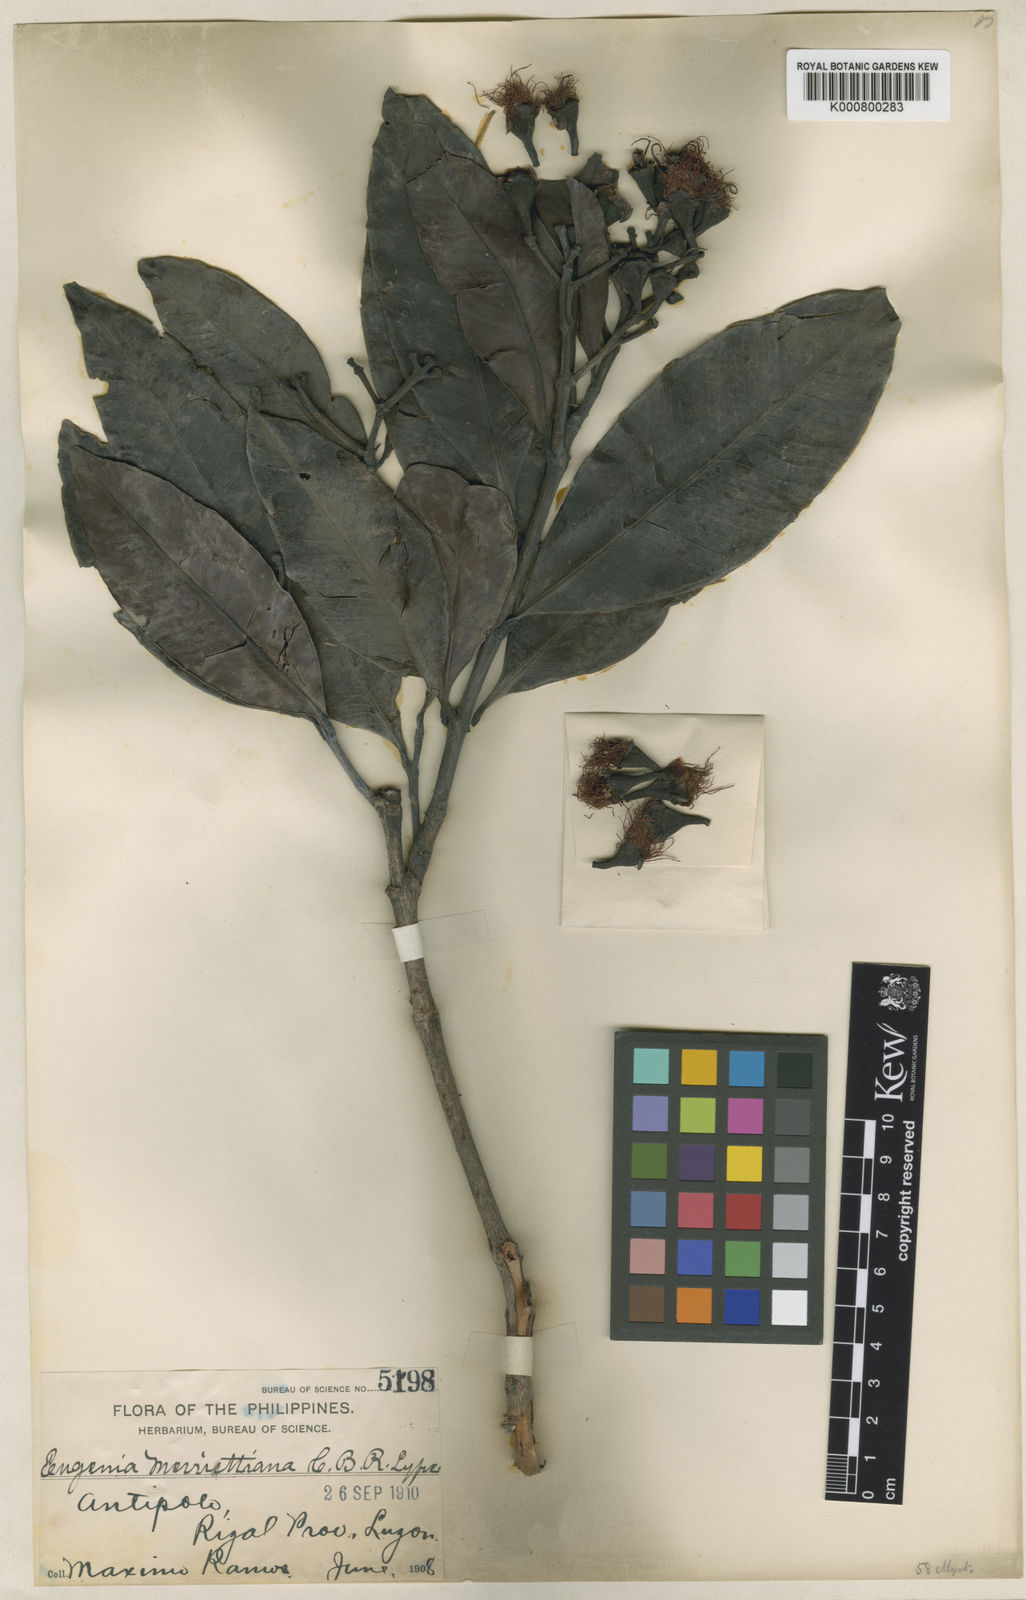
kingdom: Plantae
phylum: Tracheophyta
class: Magnoliopsida
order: Myrtales
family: Myrtaceae
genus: Syzygium
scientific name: Syzygium merrittianum
